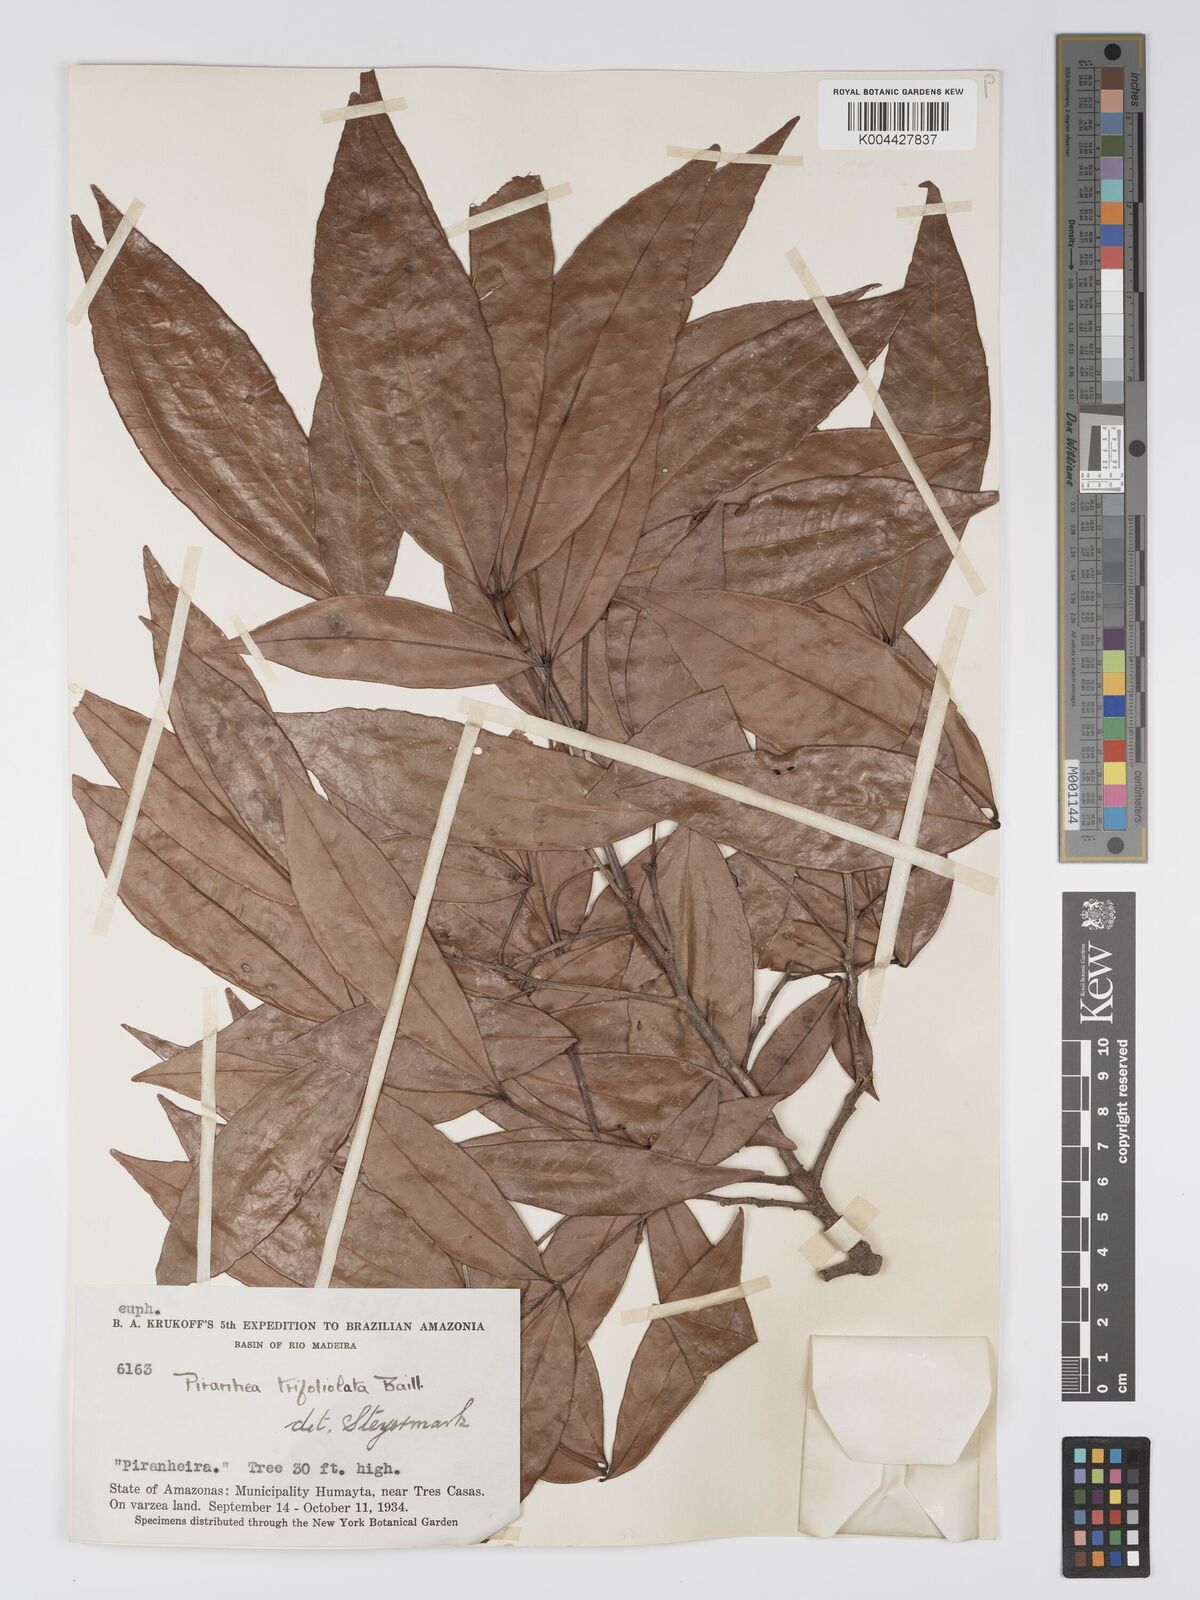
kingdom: Plantae
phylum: Tracheophyta
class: Magnoliopsida
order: Malpighiales
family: Picrodendraceae
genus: Piranhea
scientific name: Piranhea trifoliolata
